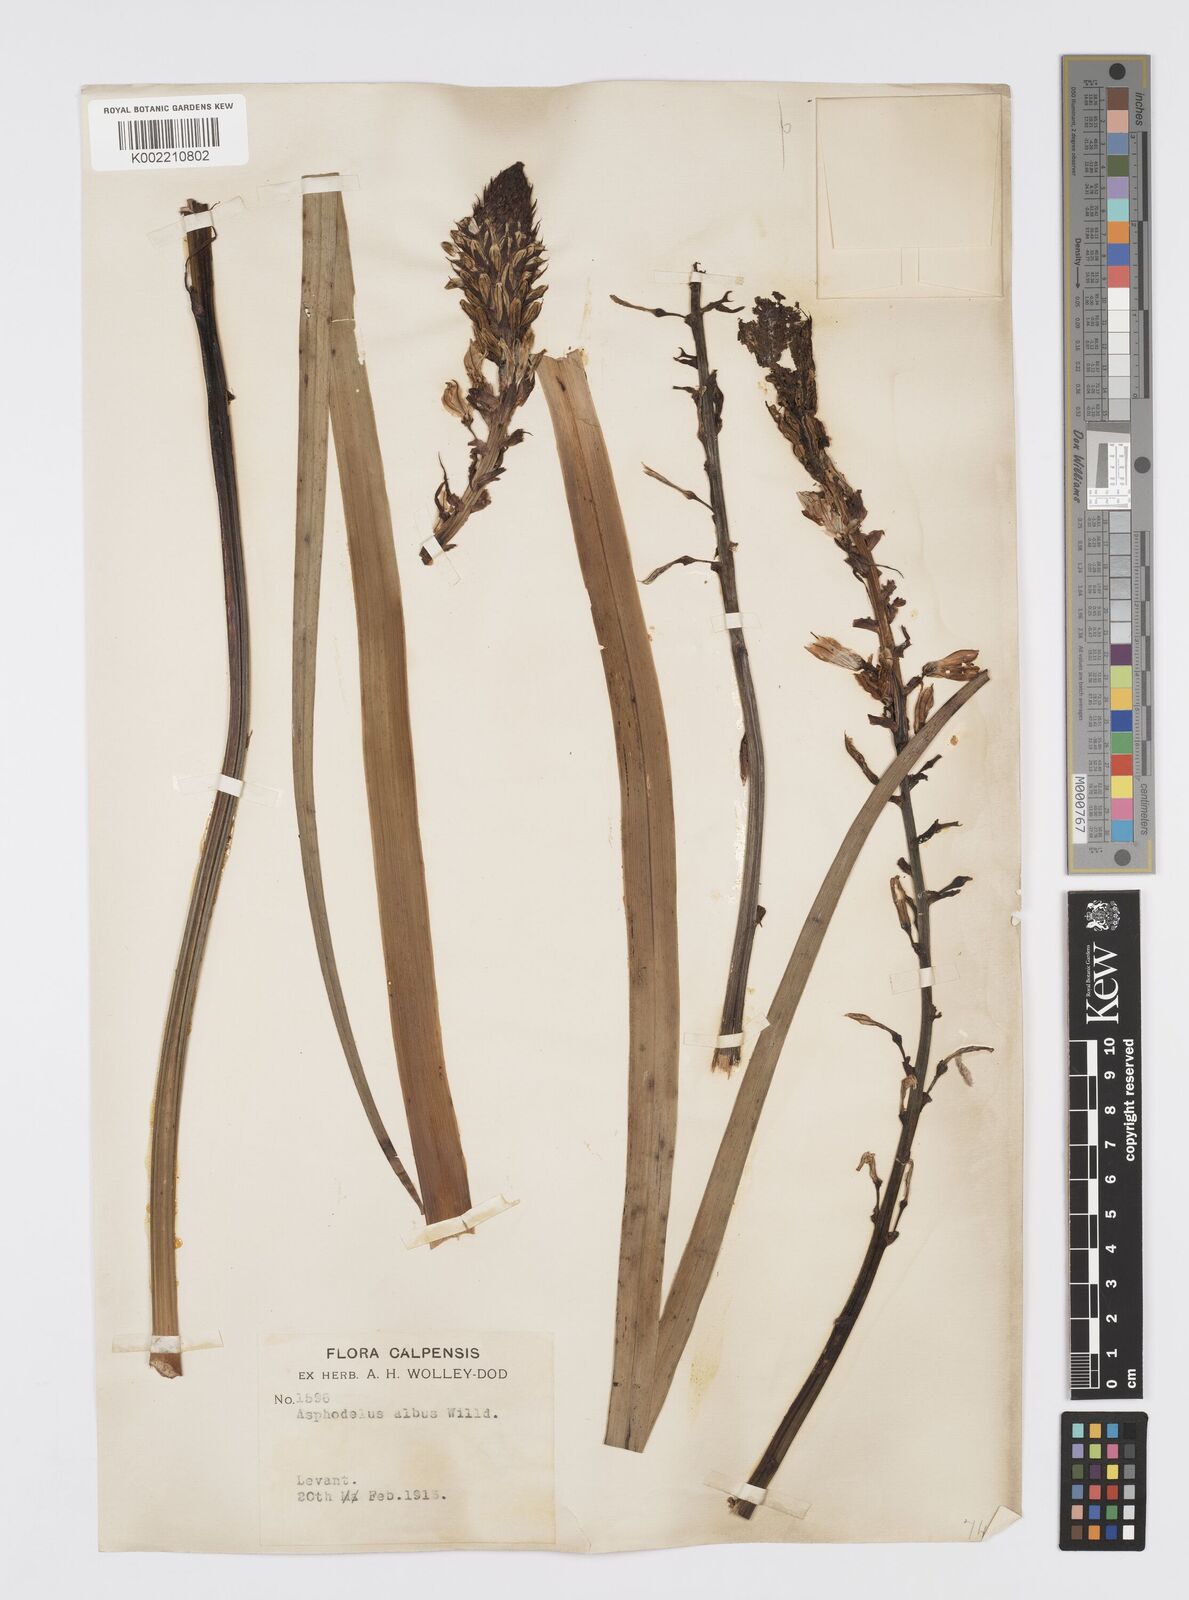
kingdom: Plantae
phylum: Tracheophyta
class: Liliopsida
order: Asparagales
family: Asphodelaceae
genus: Asphodelus
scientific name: Asphodelus cerasifer
